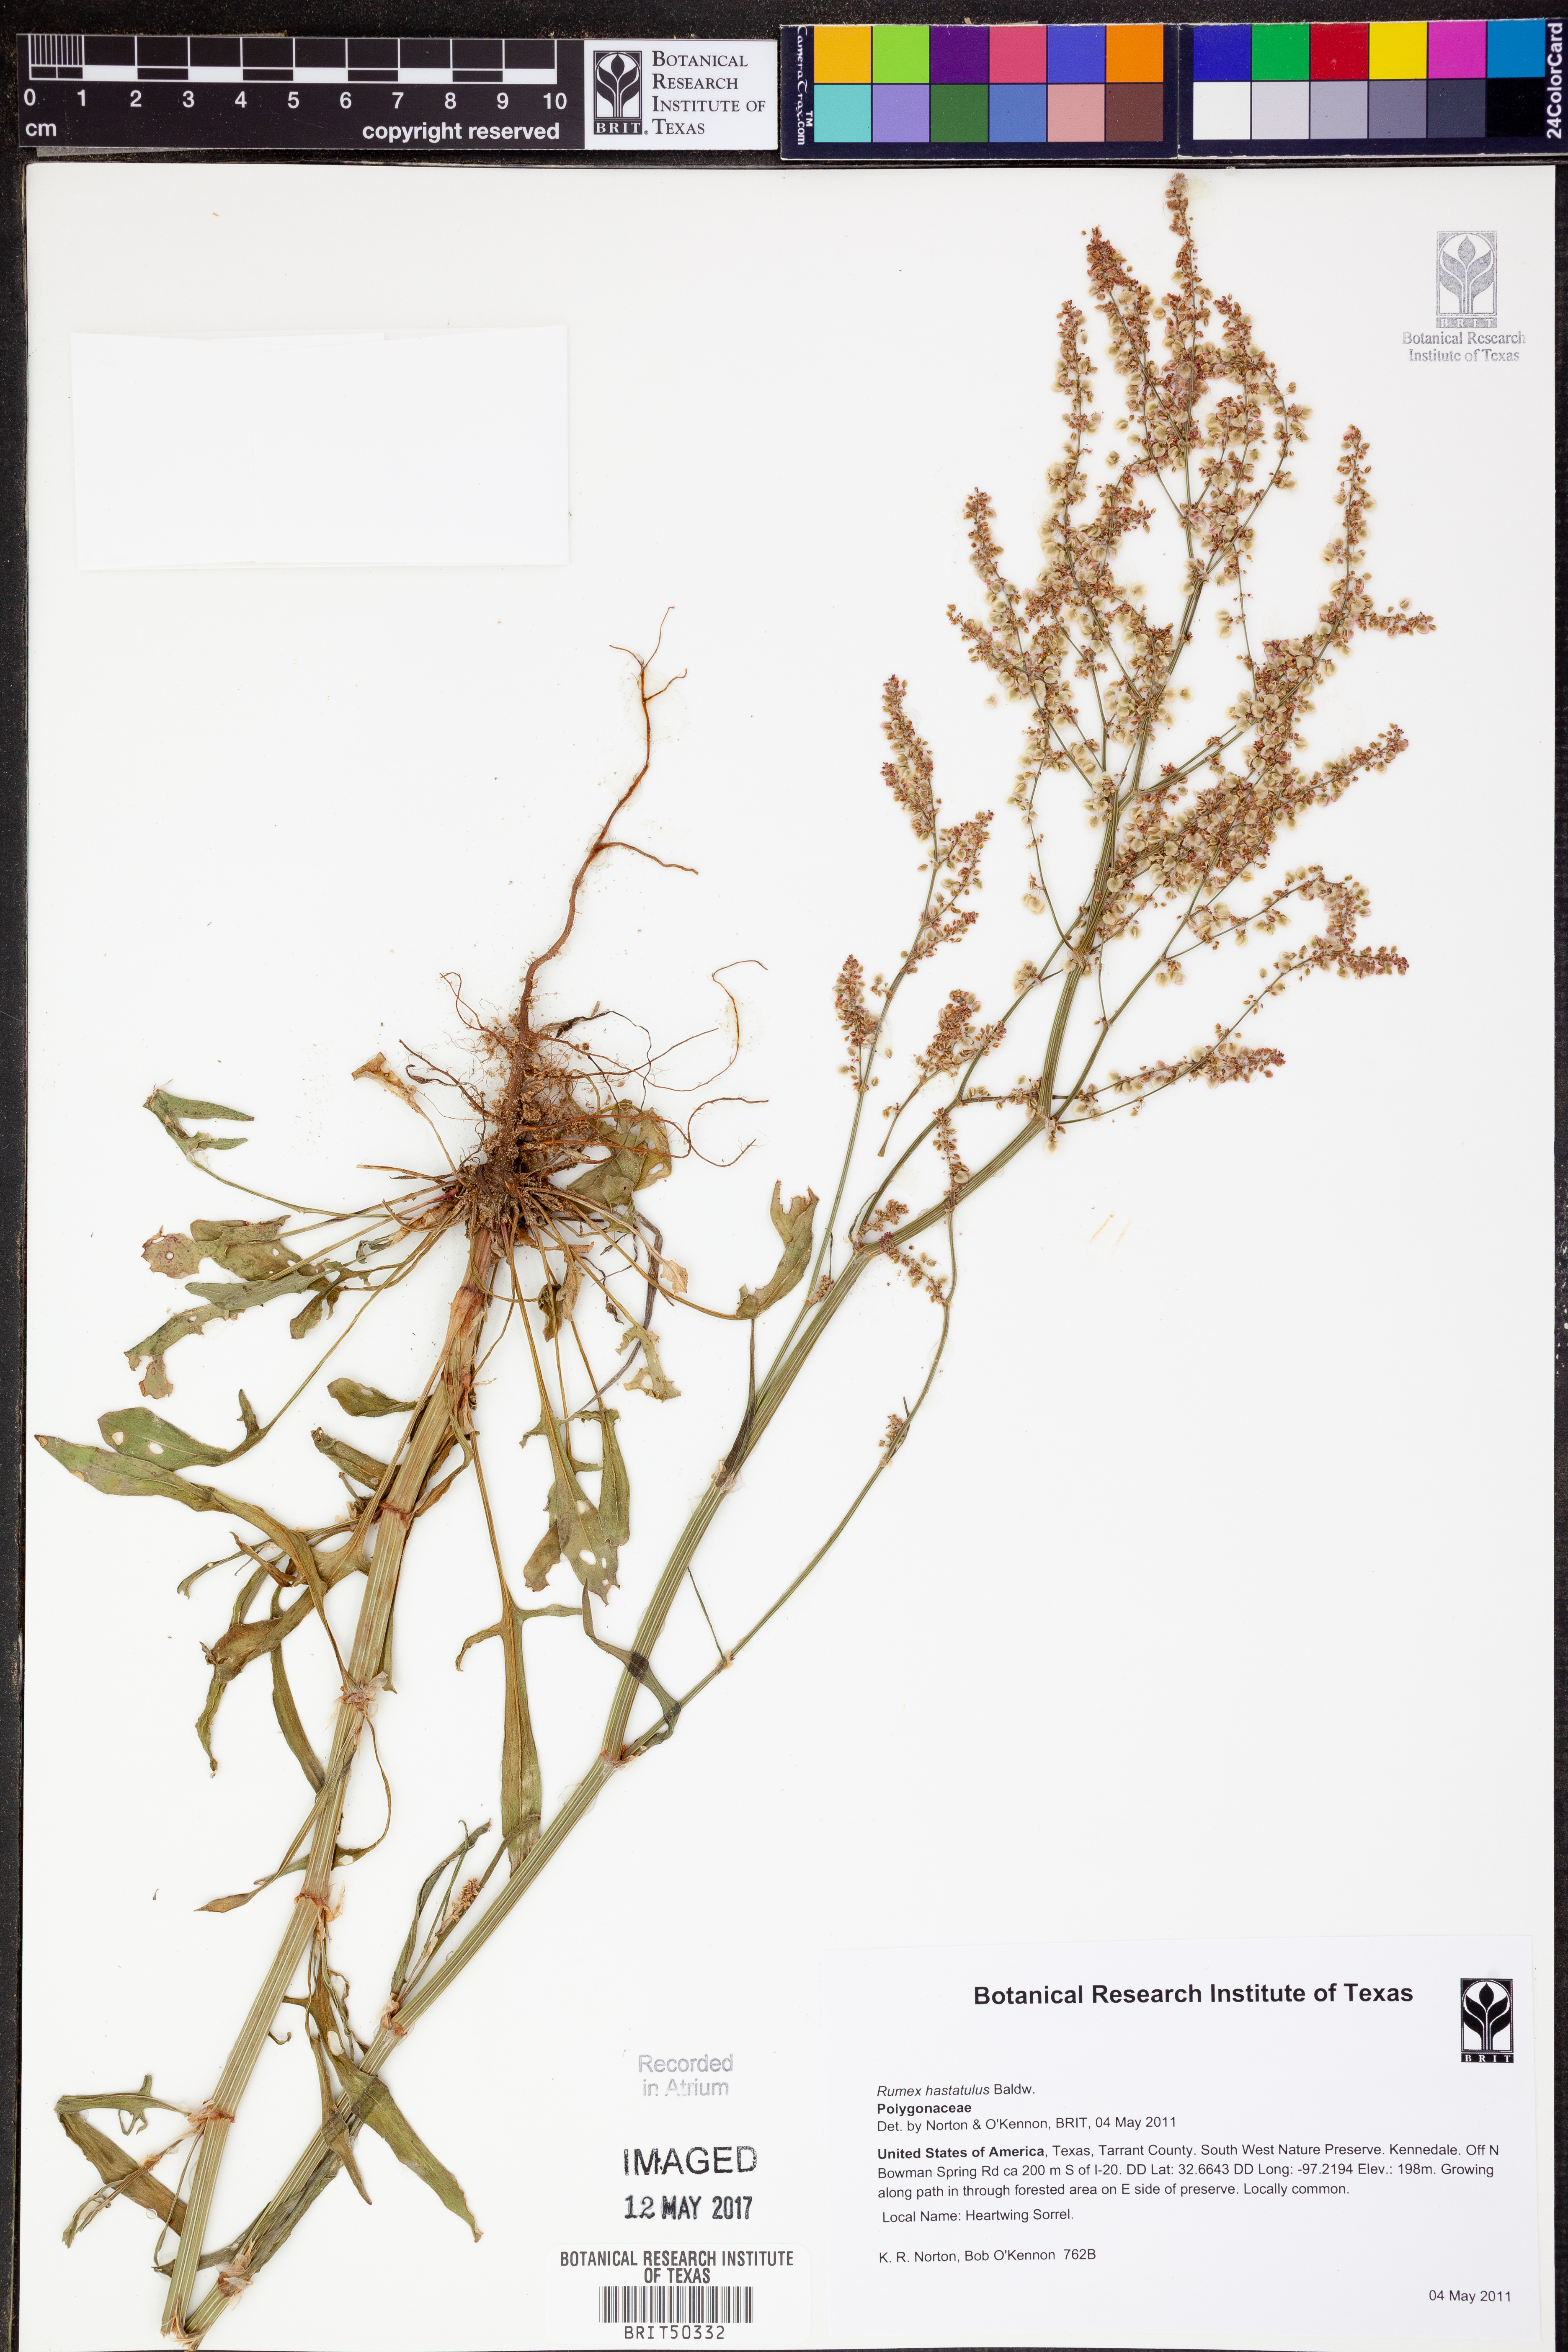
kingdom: Plantae
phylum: Tracheophyta
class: Magnoliopsida
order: Caryophyllales
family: Polygonaceae
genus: Rumex
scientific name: Rumex hastatulus
